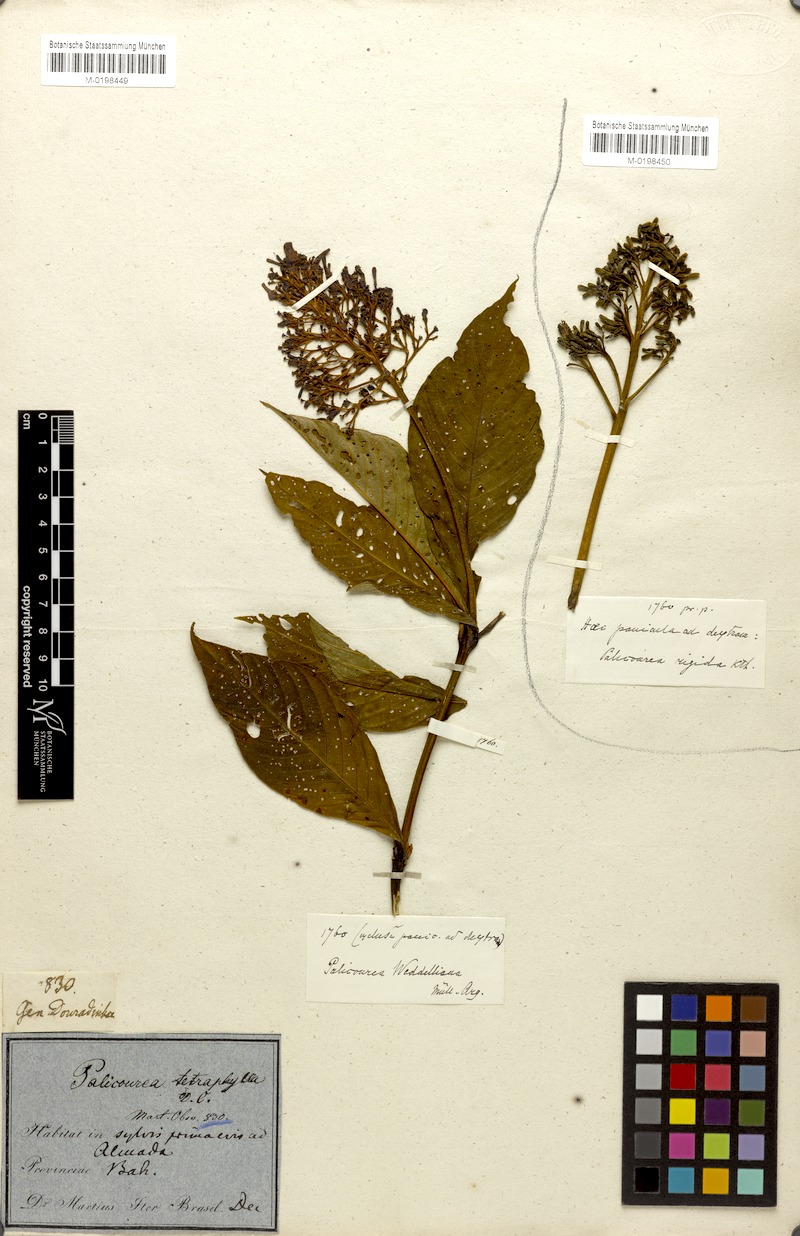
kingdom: Plantae
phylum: Tracheophyta
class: Magnoliopsida
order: Gentianales
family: Rubiaceae
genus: Palicourea
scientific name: Palicourea tetraphylla
